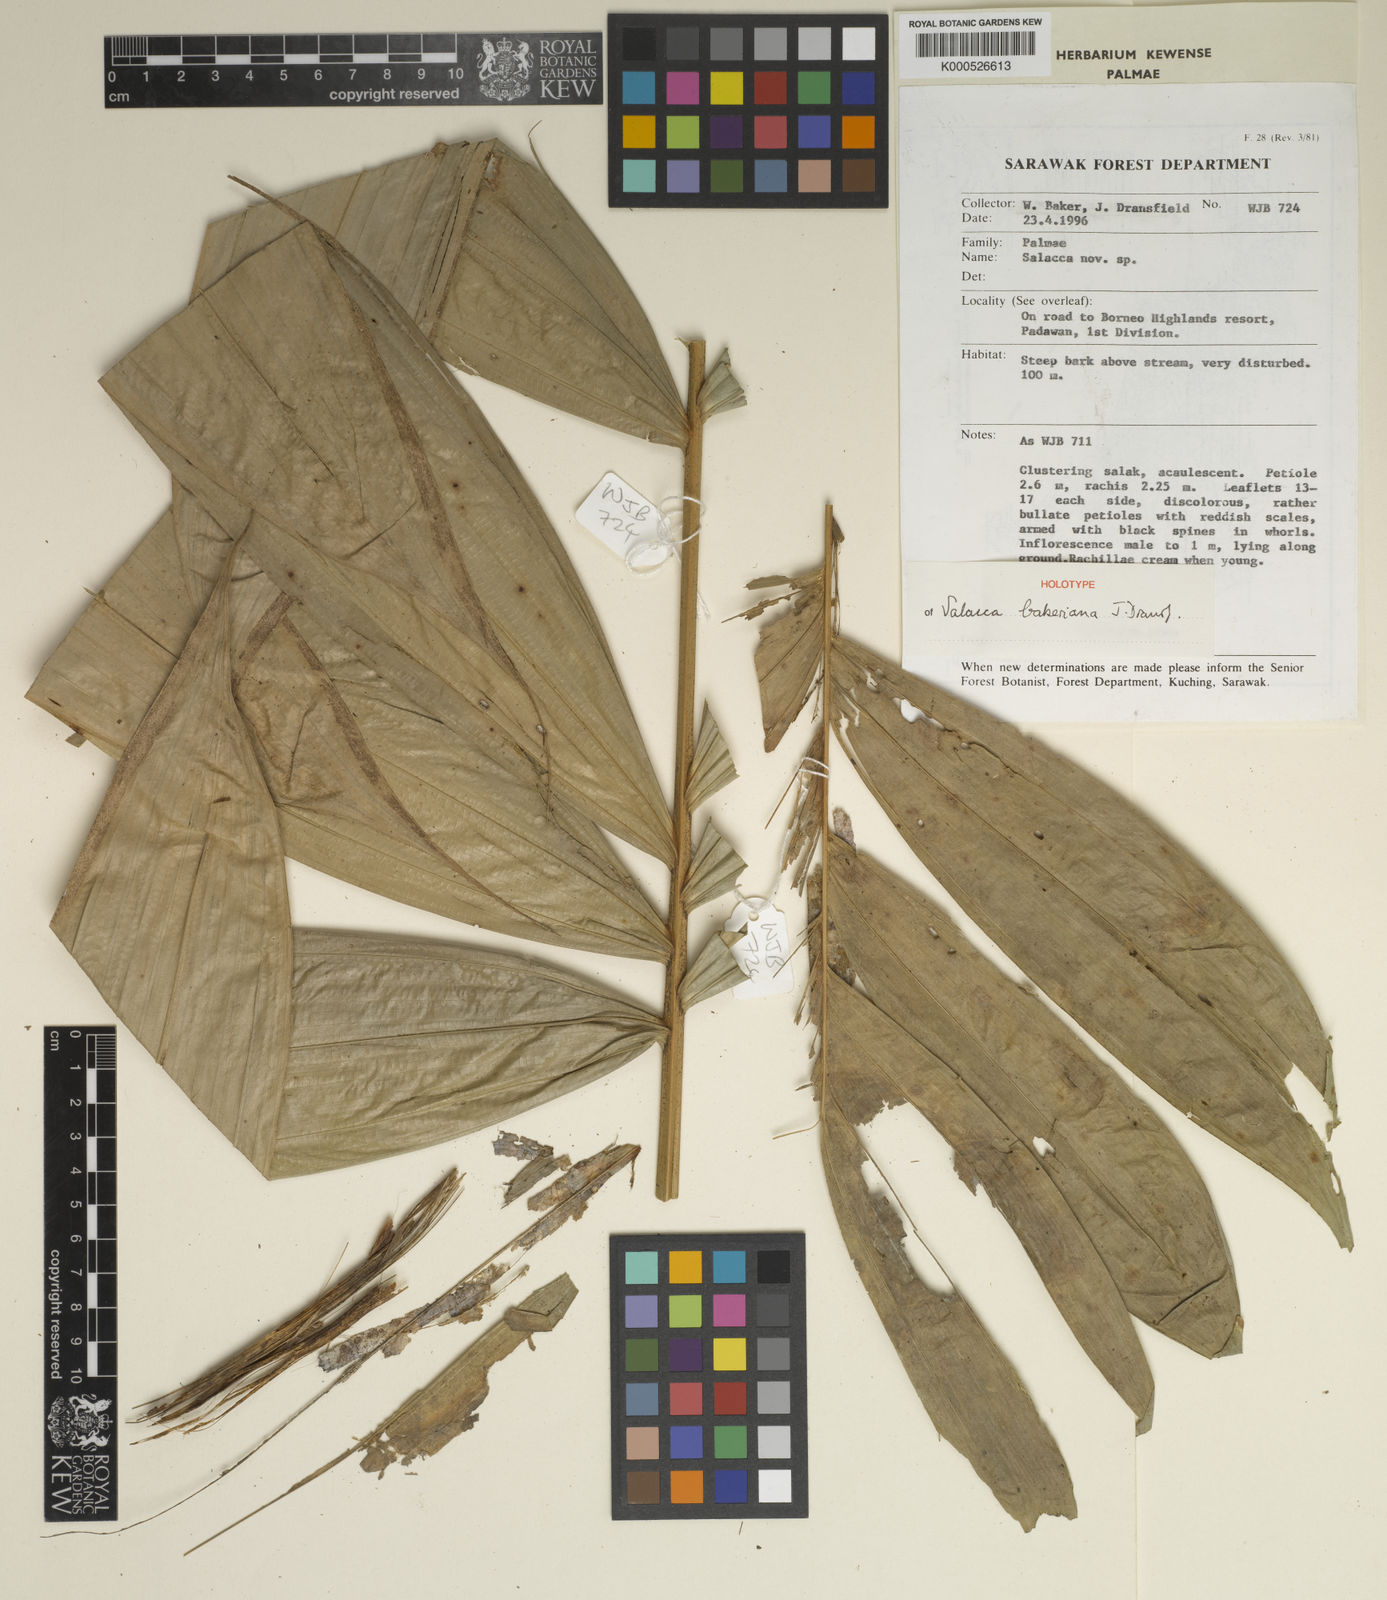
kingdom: Plantae
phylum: Tracheophyta
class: Liliopsida
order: Arecales
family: Arecaceae
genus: Salacca
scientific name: Salacca bakeriana
